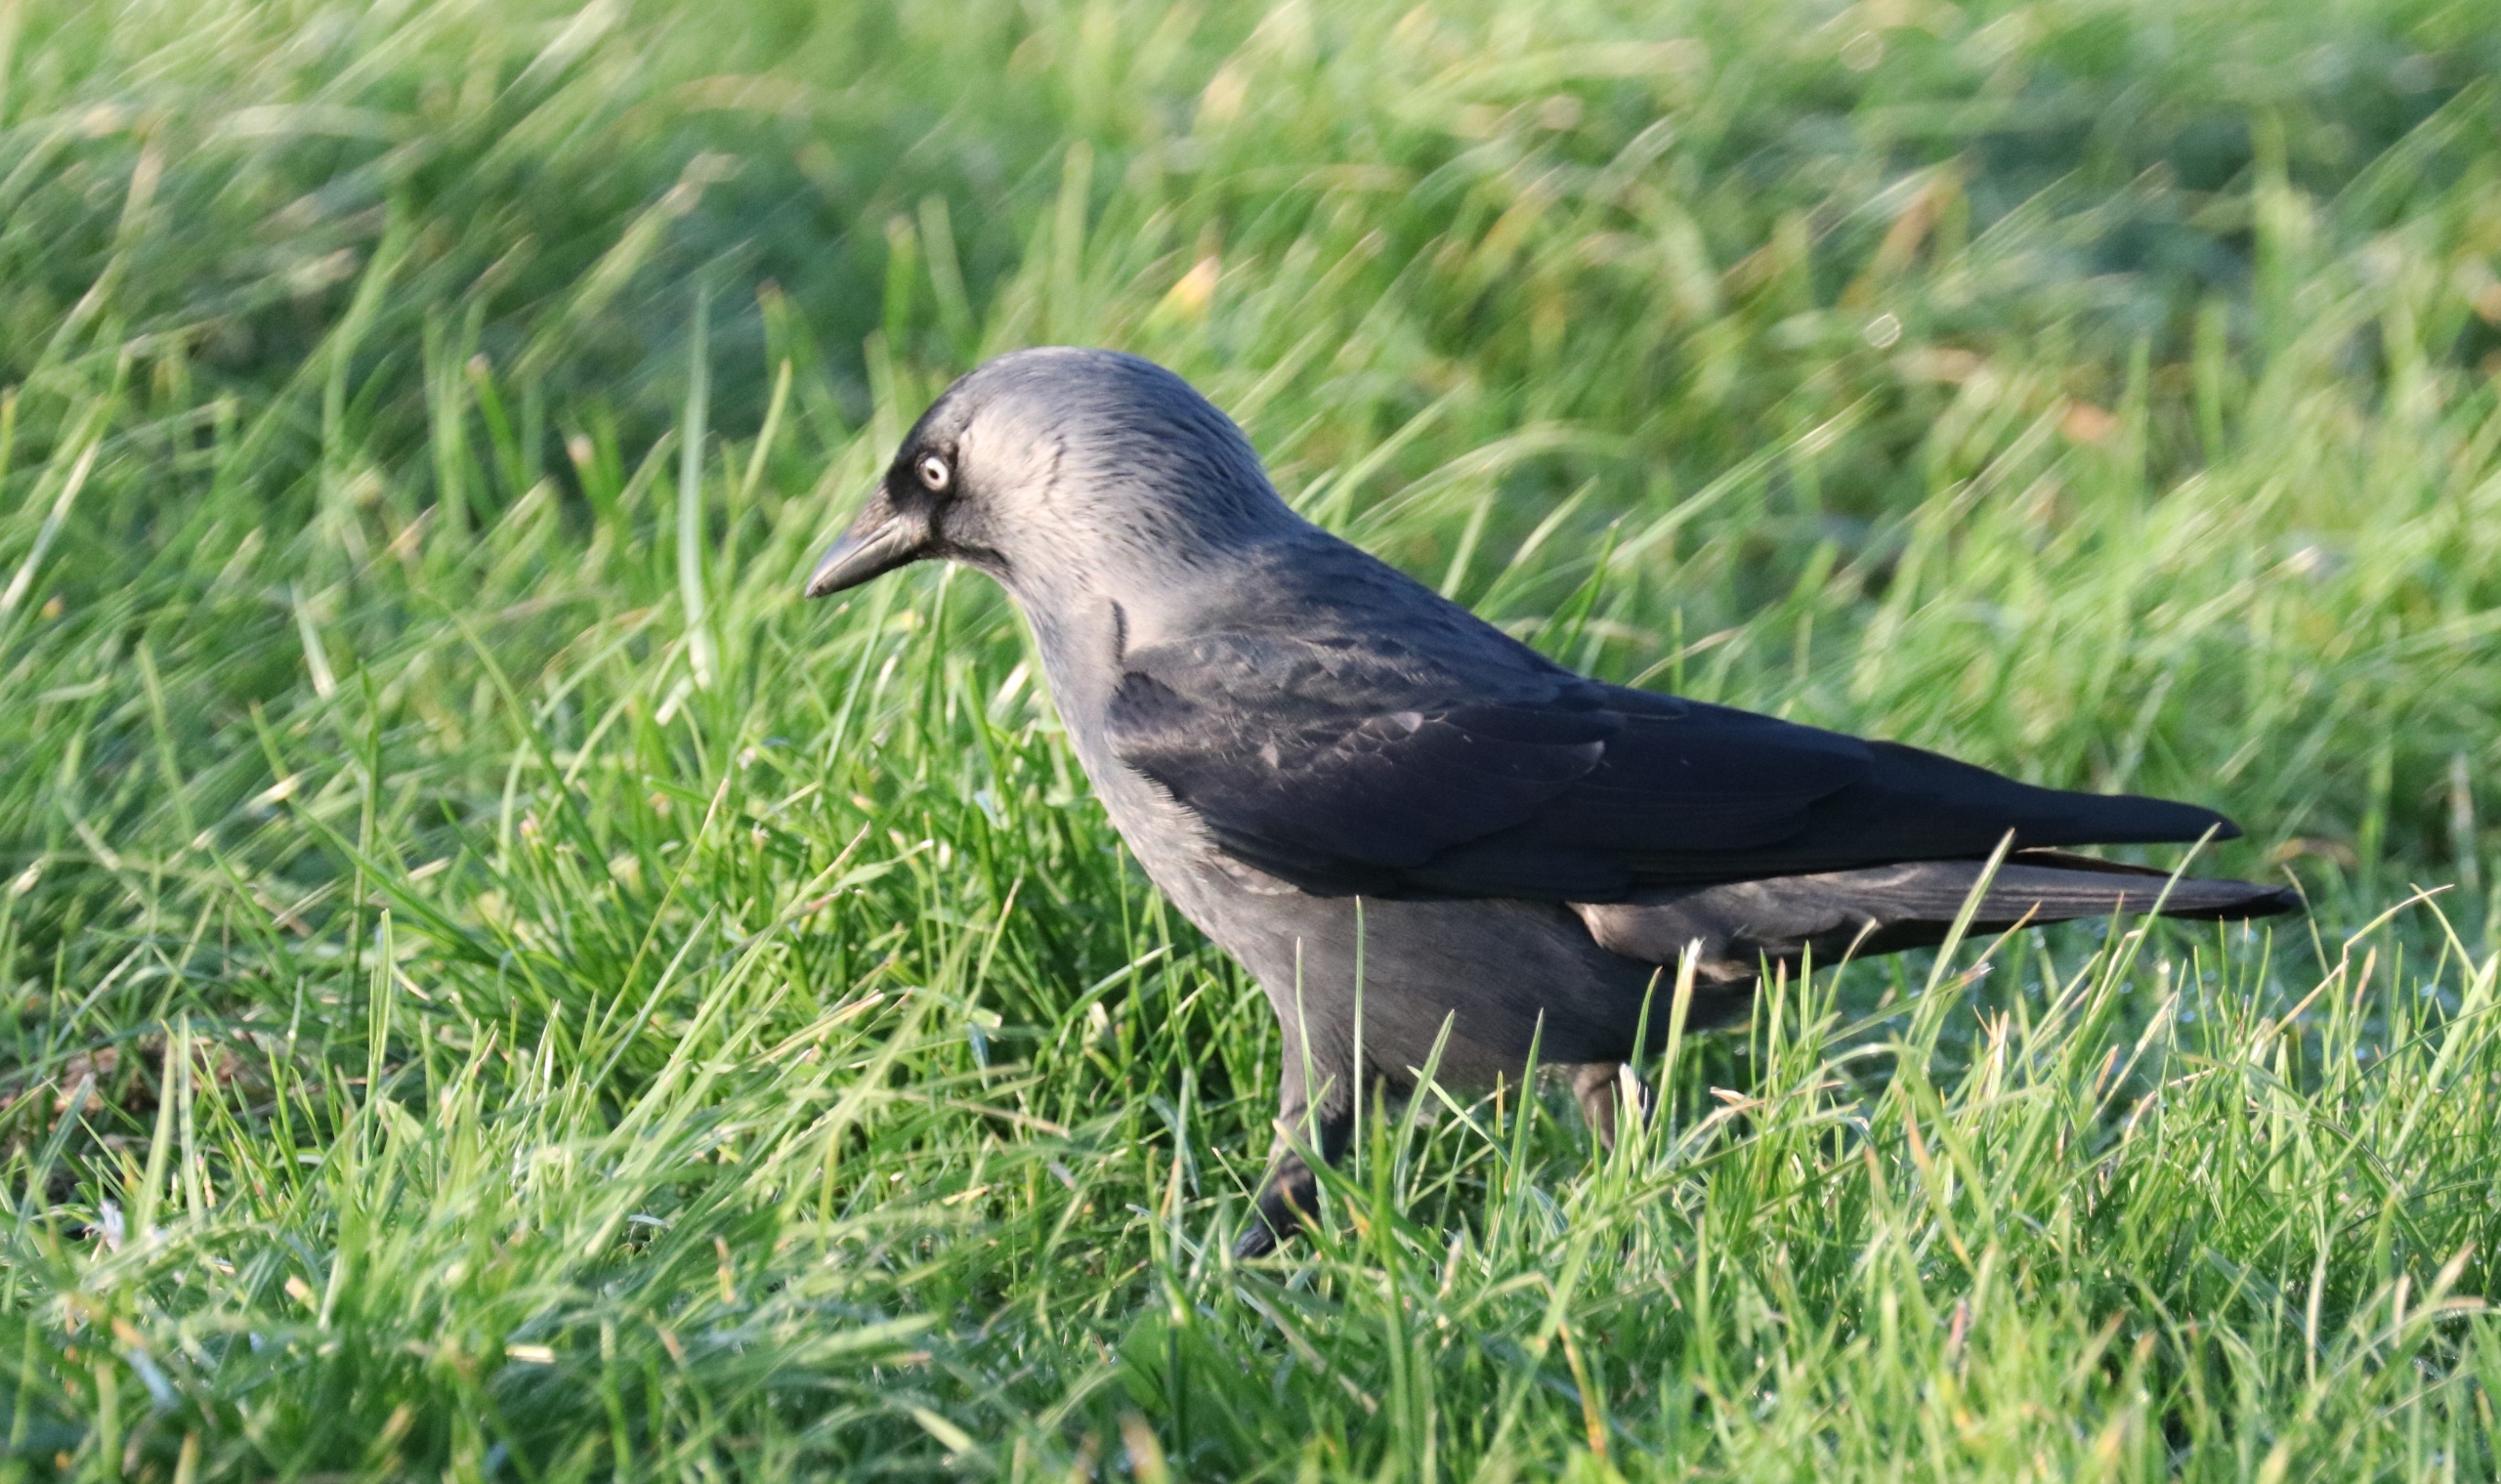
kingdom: Animalia
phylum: Chordata
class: Aves
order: Passeriformes
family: Corvidae
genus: Coloeus
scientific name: Coloeus monedula
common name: Allike
